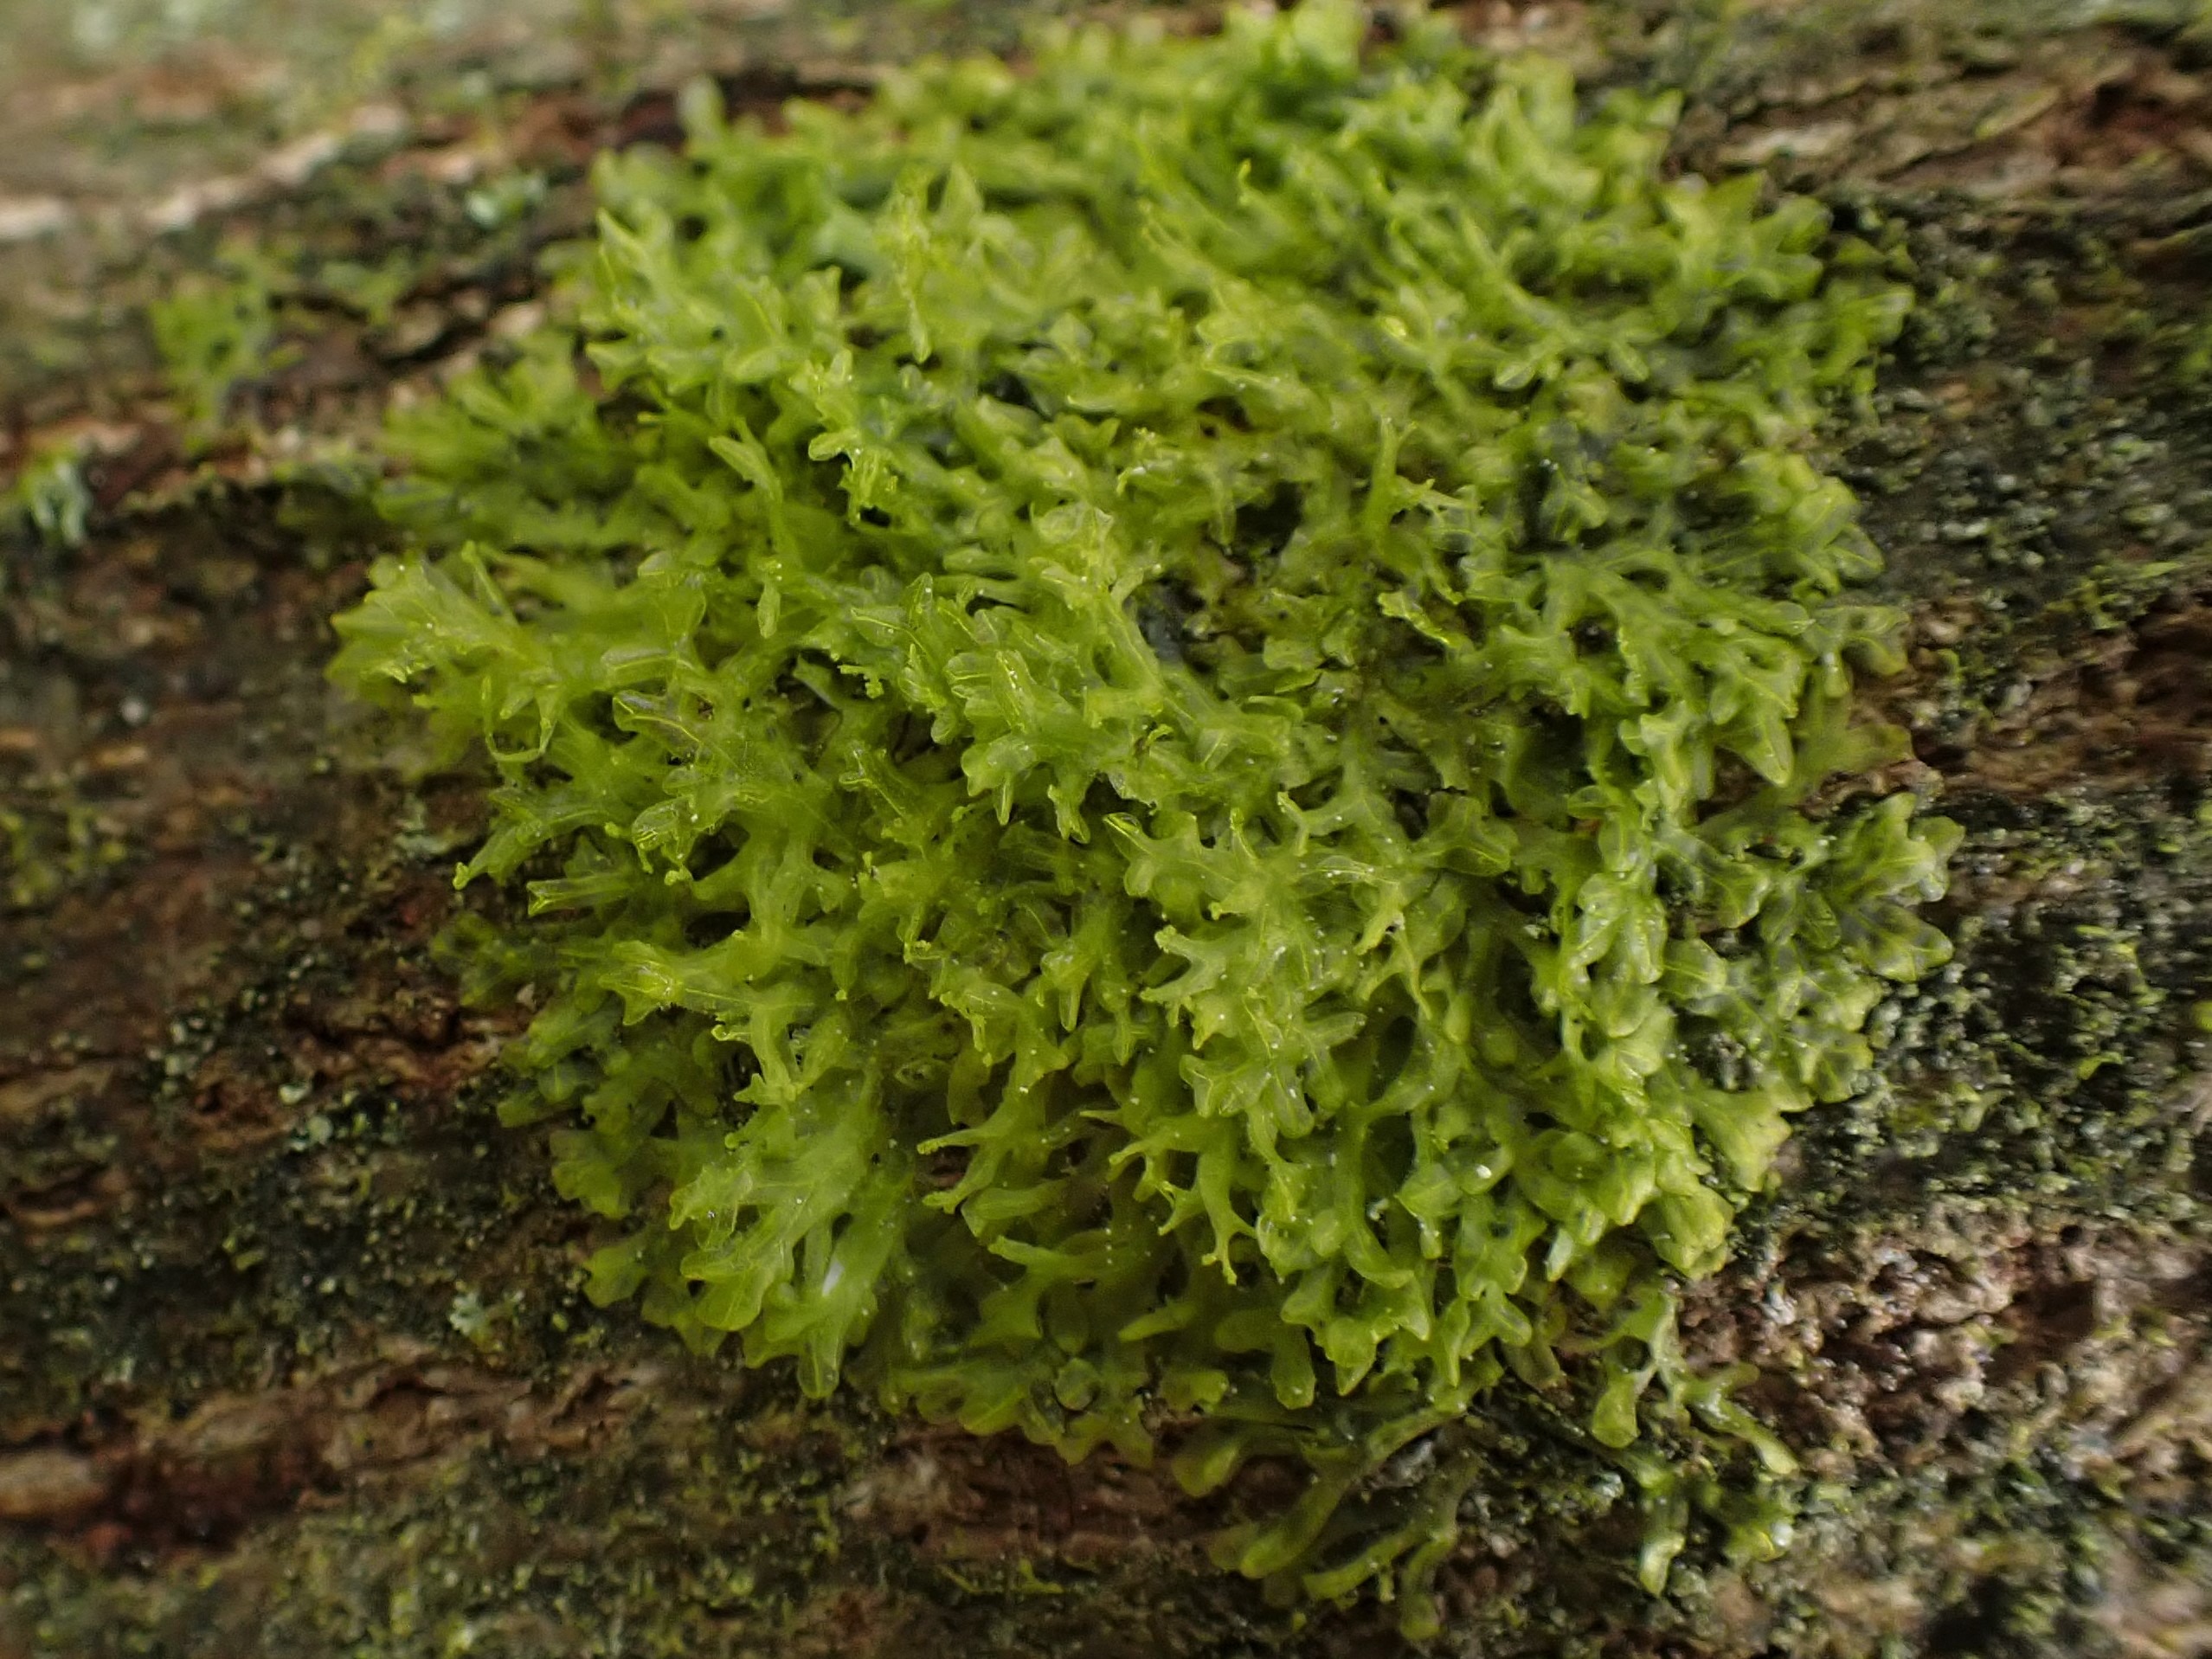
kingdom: Plantae
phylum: Marchantiophyta
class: Jungermanniopsida
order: Metzgeriales
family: Aneuraceae
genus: Riccardia
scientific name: Riccardia palmata
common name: Blågrøn gaffelløv
